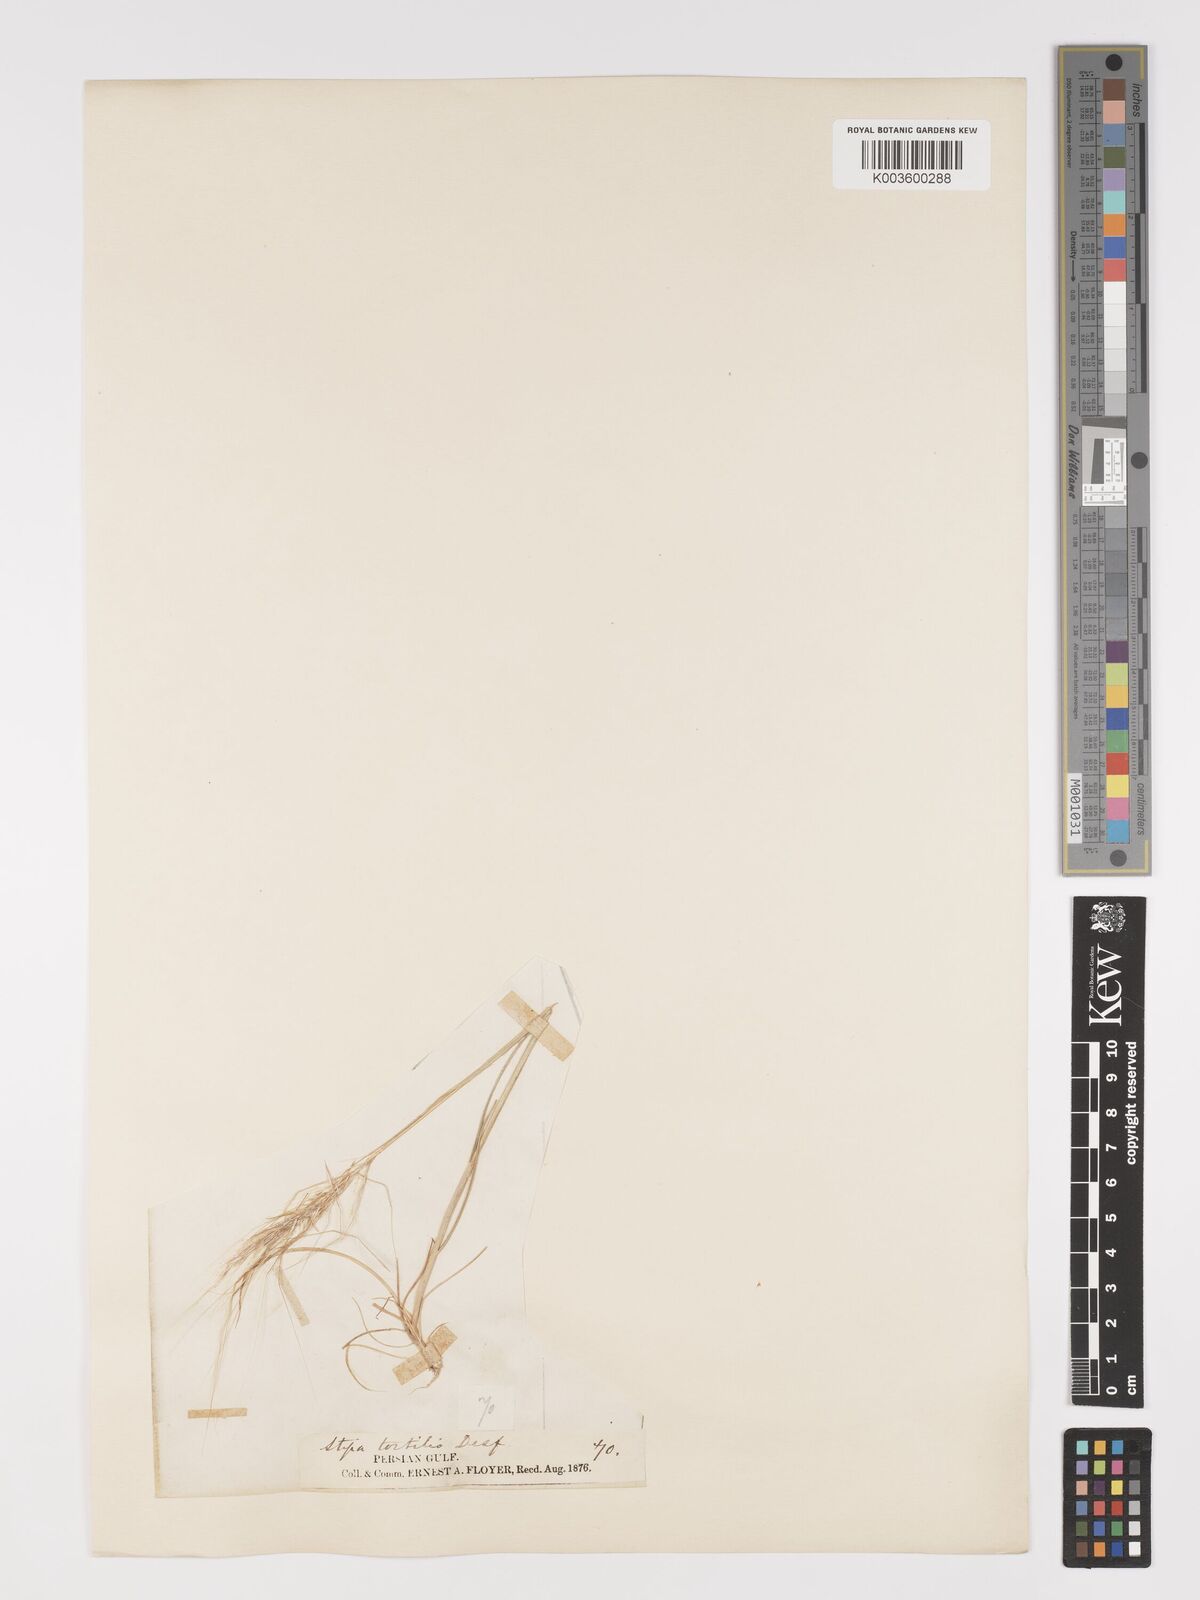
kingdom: Plantae
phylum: Tracheophyta
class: Liliopsida
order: Poales
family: Poaceae
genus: Stipellula
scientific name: Stipellula capensis
